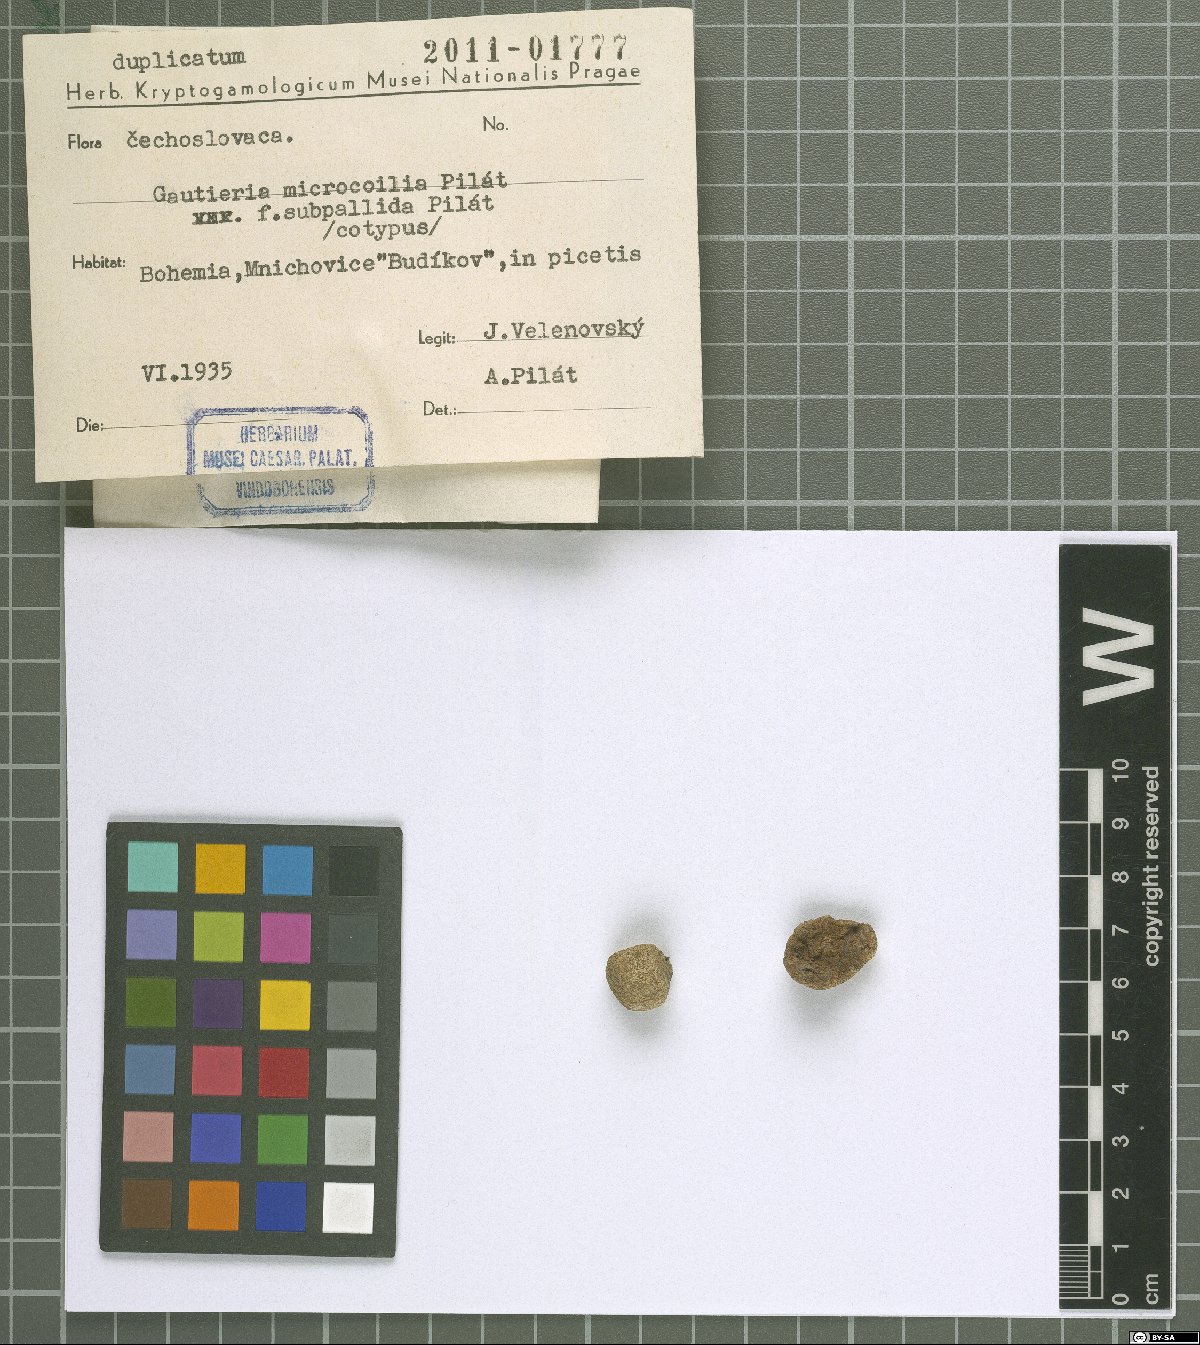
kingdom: Fungi
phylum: Basidiomycota
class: Agaricomycetes
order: Gomphales
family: Gomphaceae
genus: Gautieria
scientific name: Gautieria
